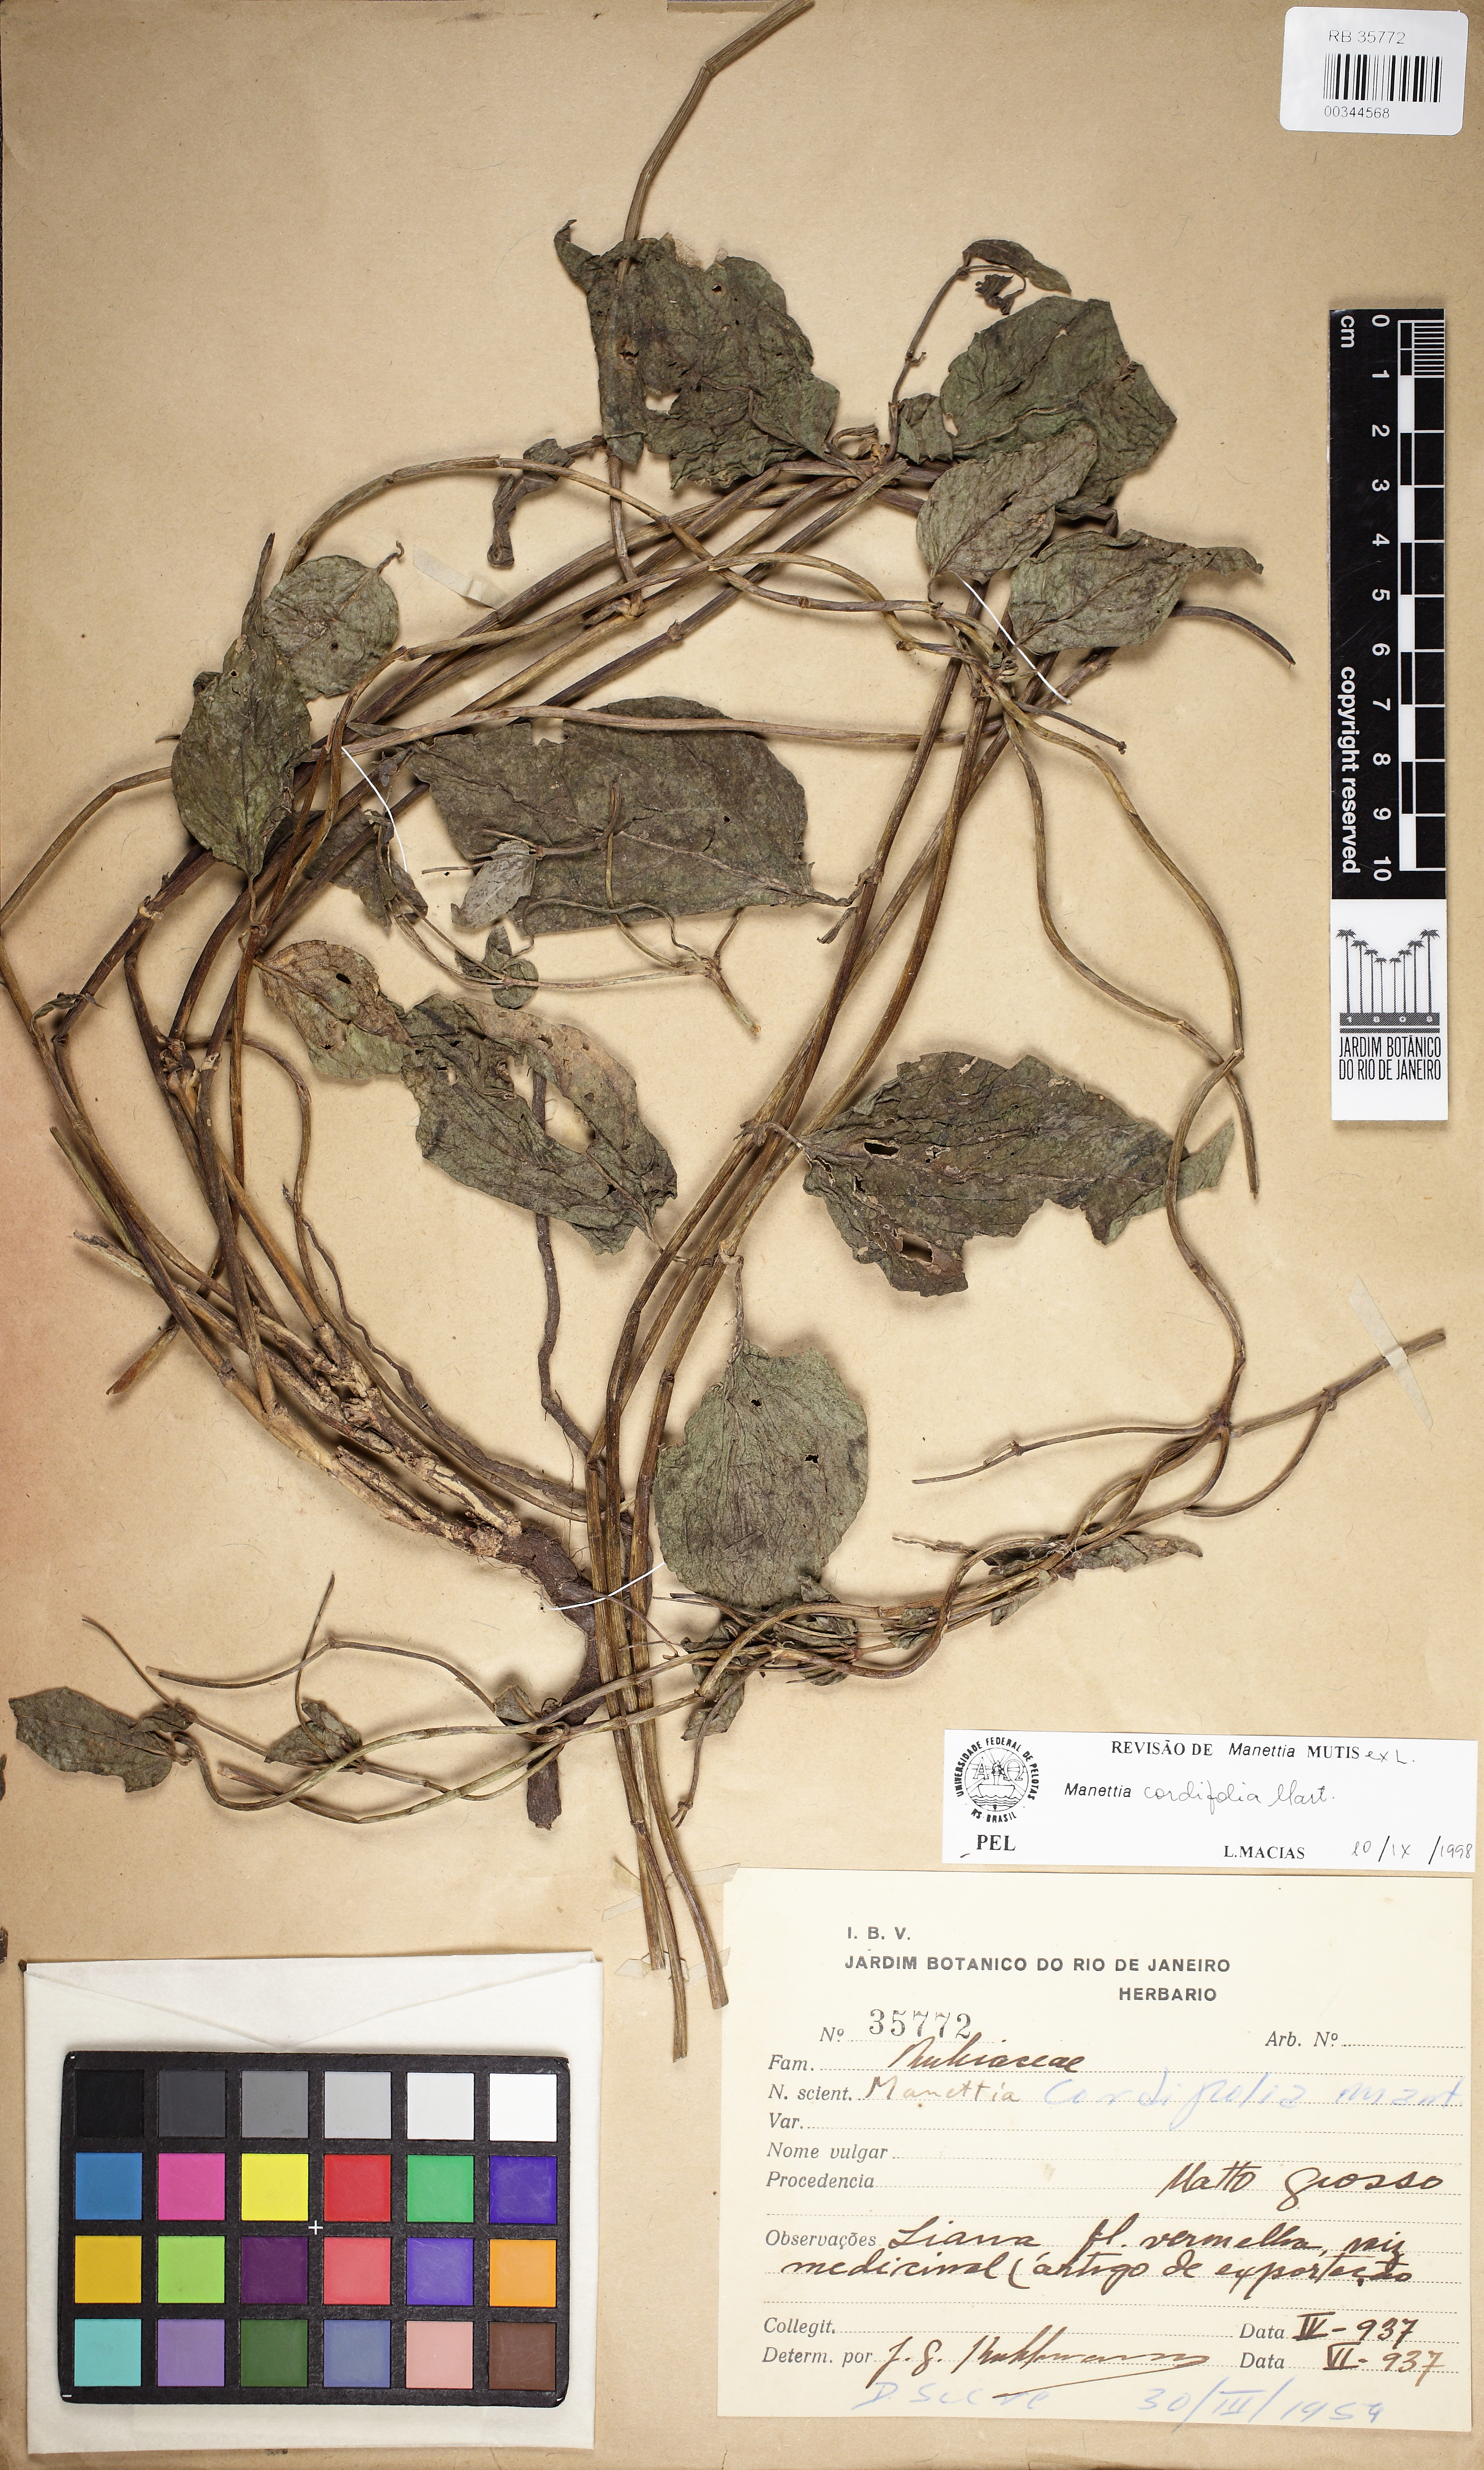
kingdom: Plantae
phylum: Tracheophyta
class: Magnoliopsida
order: Gentianales
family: Rubiaceae
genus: Manettia
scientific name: Manettia cordifolia
